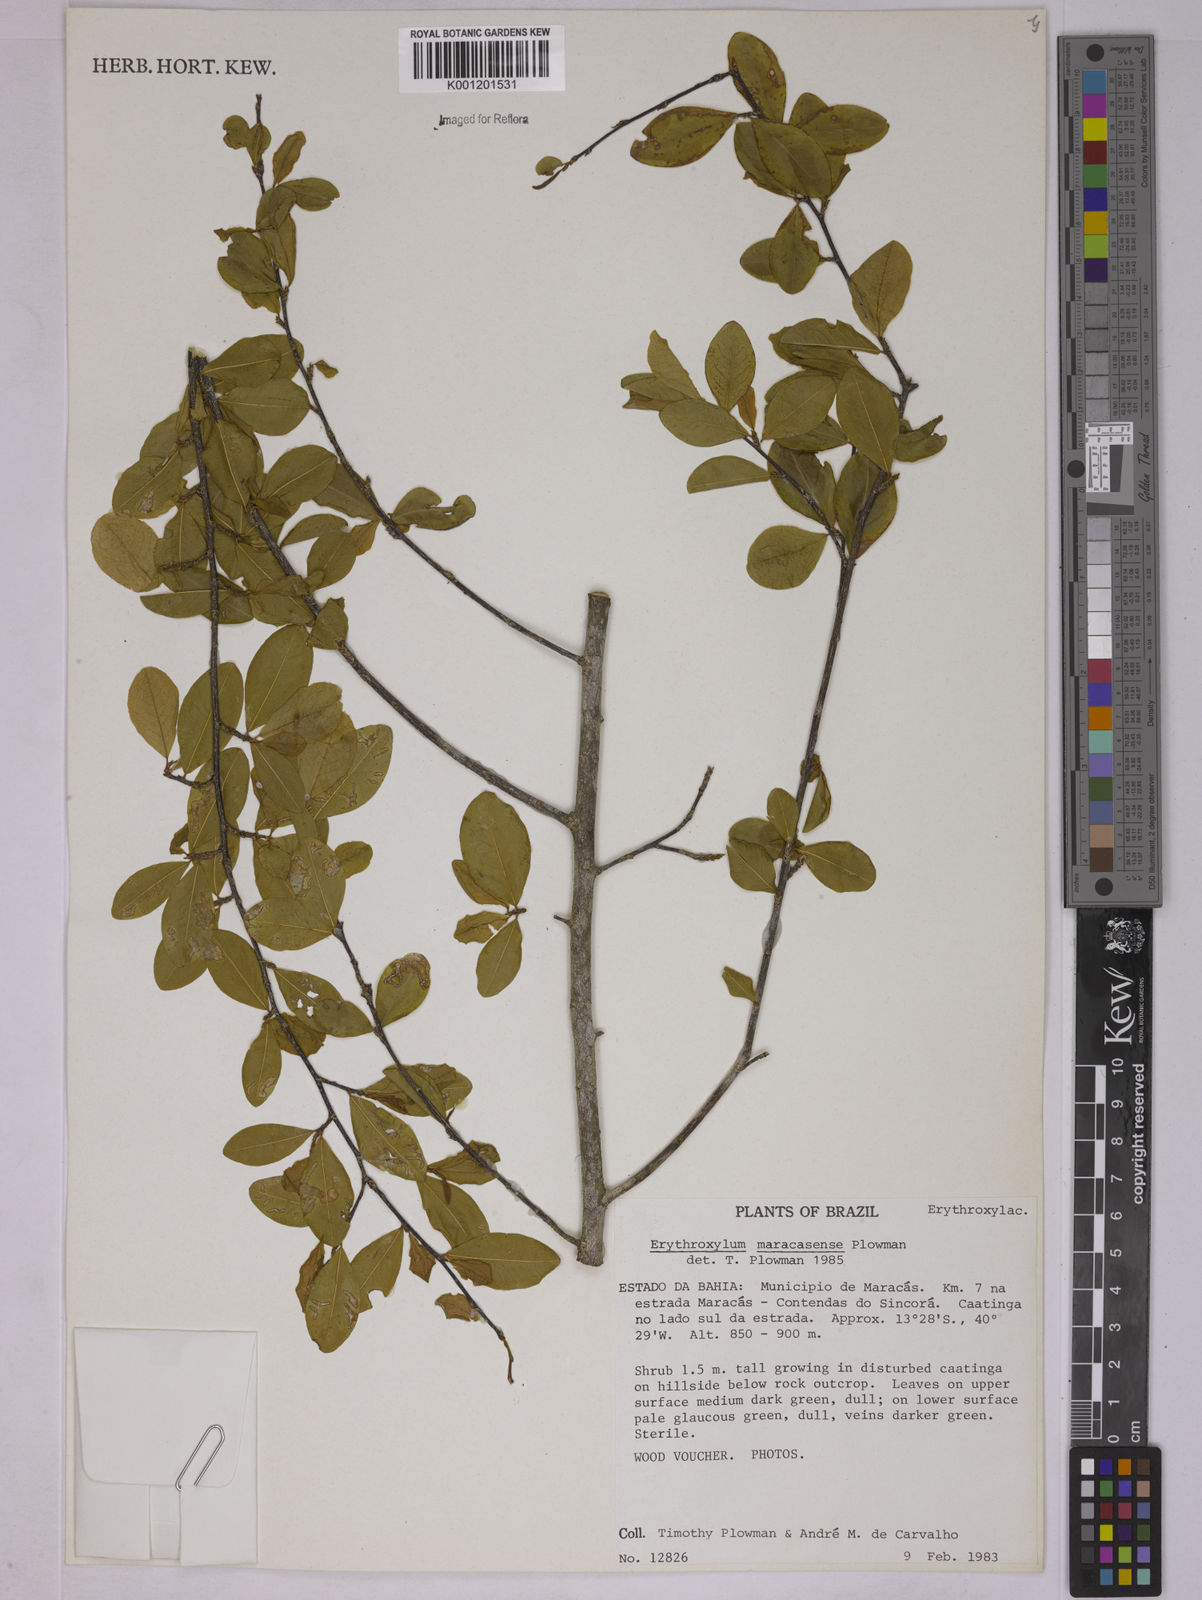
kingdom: Plantae
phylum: Tracheophyta
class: Magnoliopsida
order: Malpighiales
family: Erythroxylaceae
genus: Erythroxylum
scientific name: Erythroxylum maracasense
